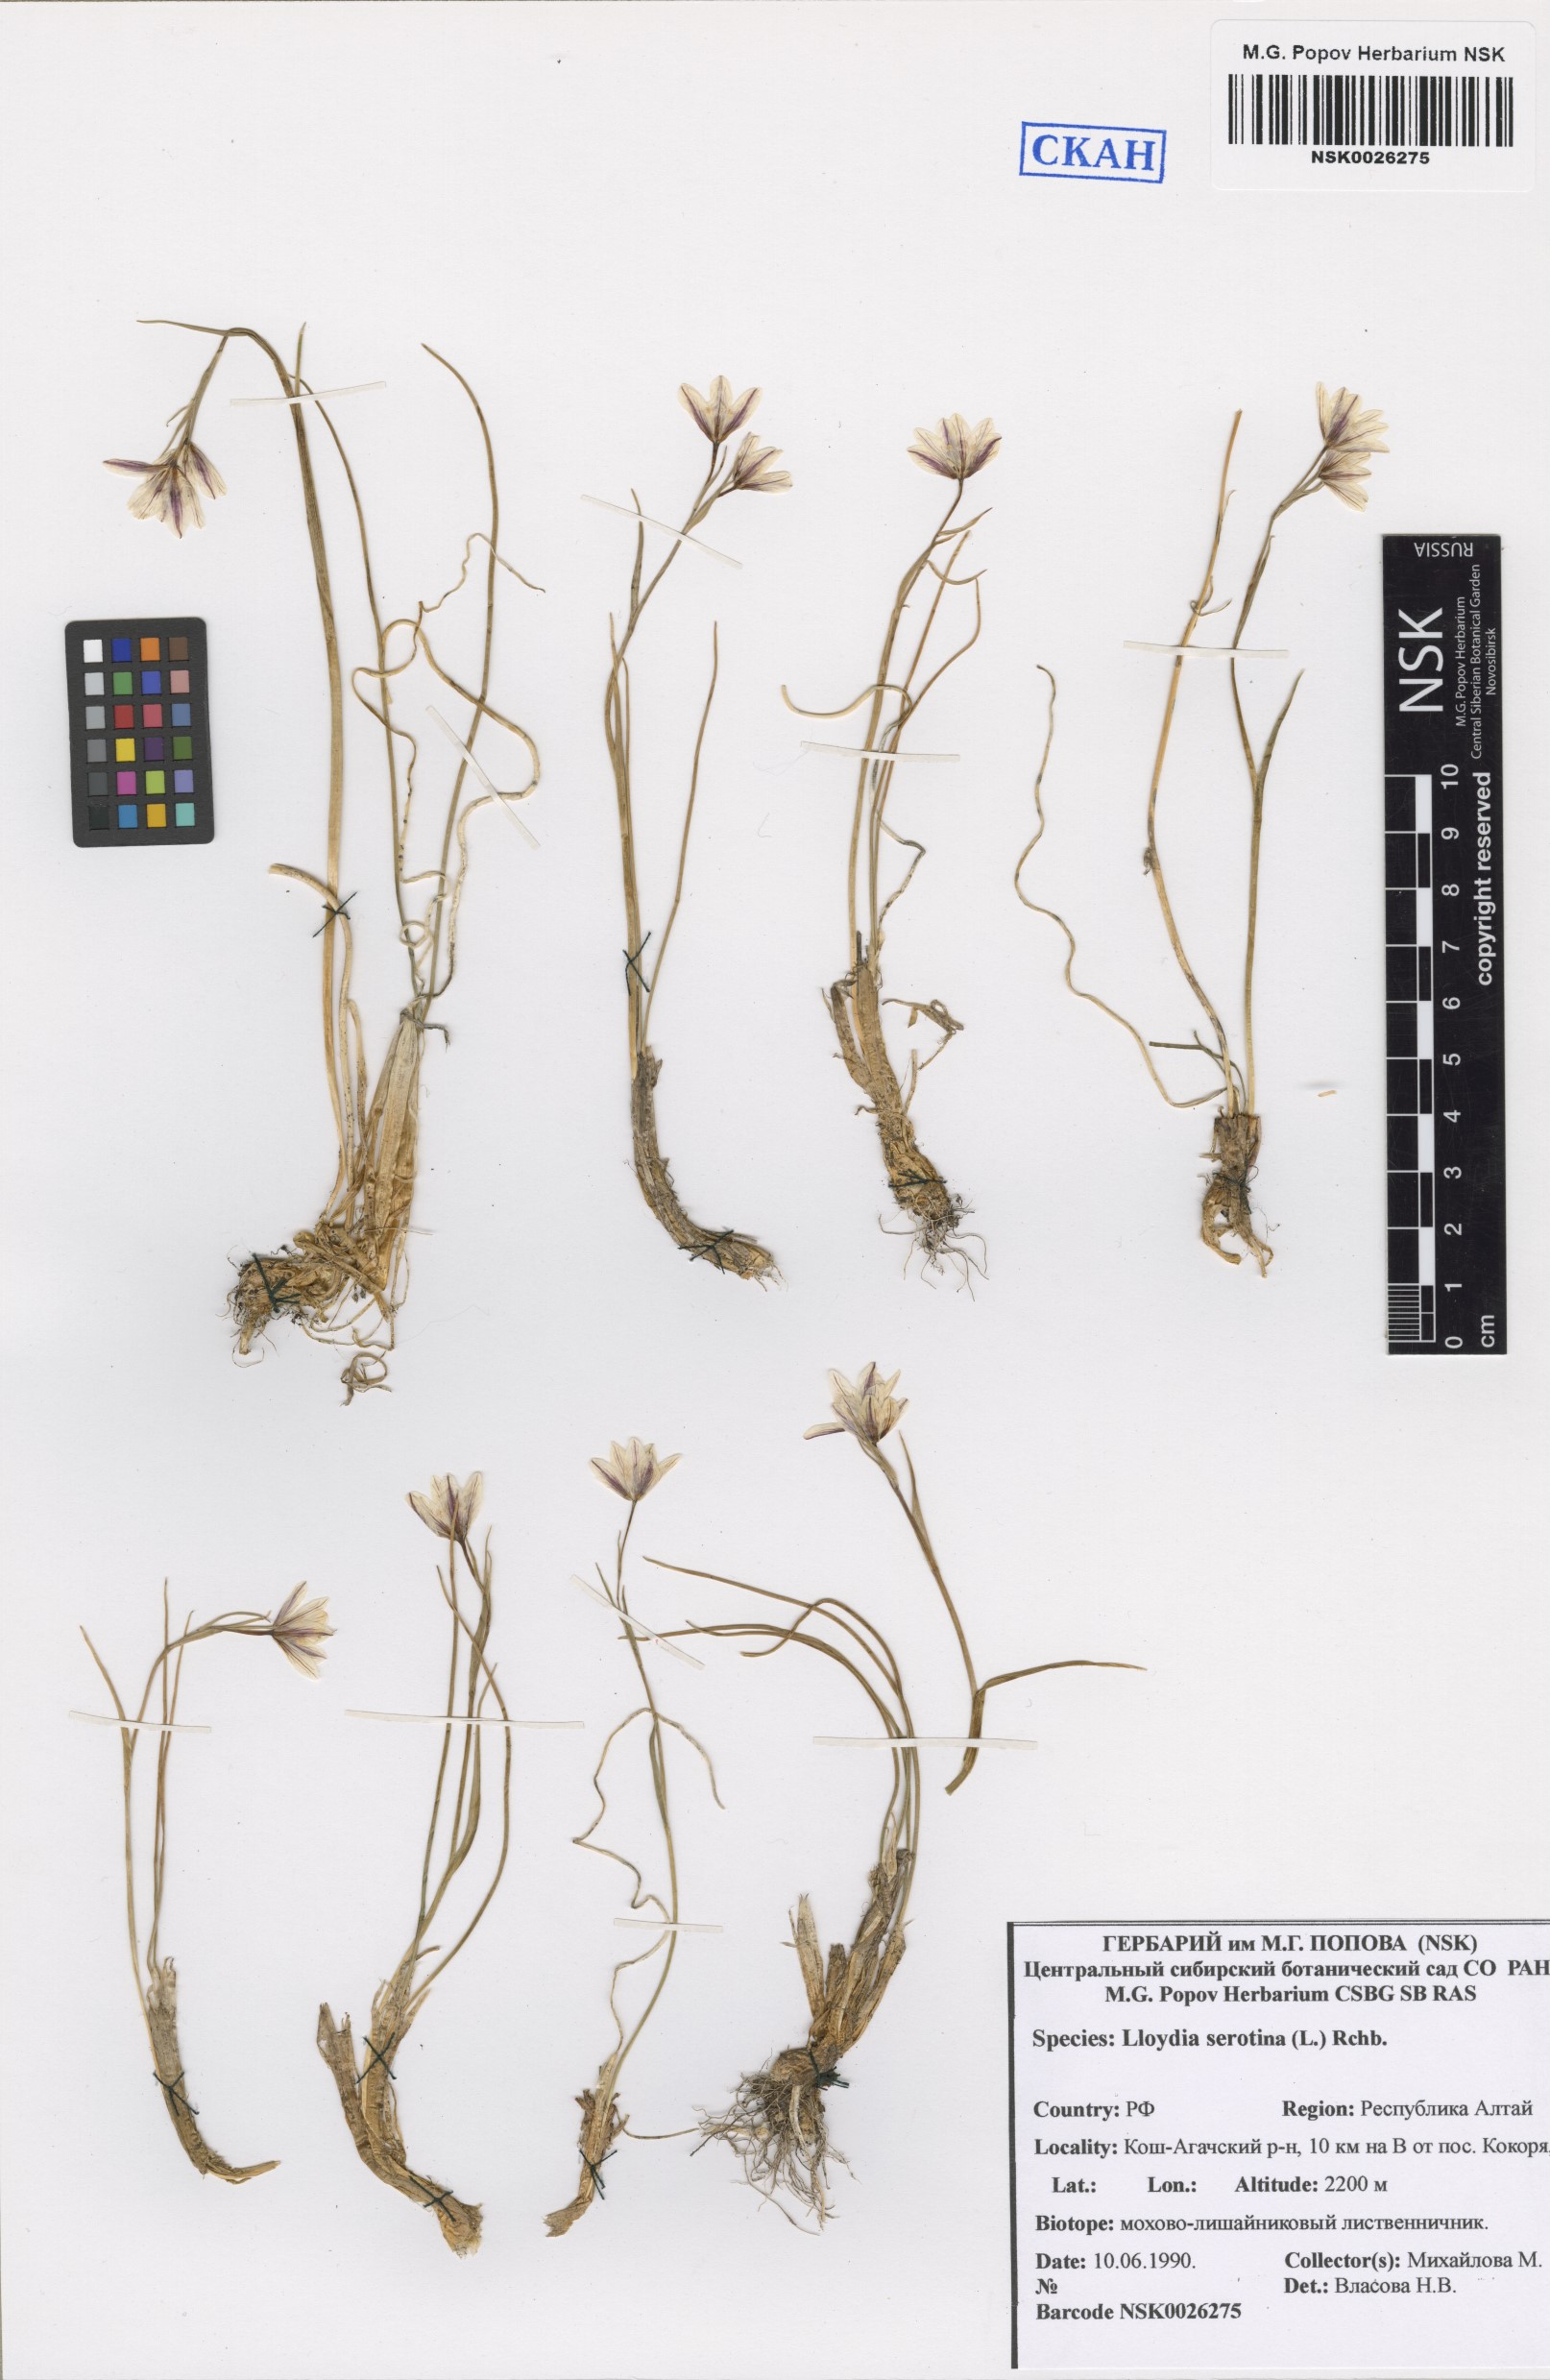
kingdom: Plantae
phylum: Tracheophyta
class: Liliopsida
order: Liliales
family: Liliaceae
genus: Gagea
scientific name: Gagea serotina
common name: Snowdon lily
